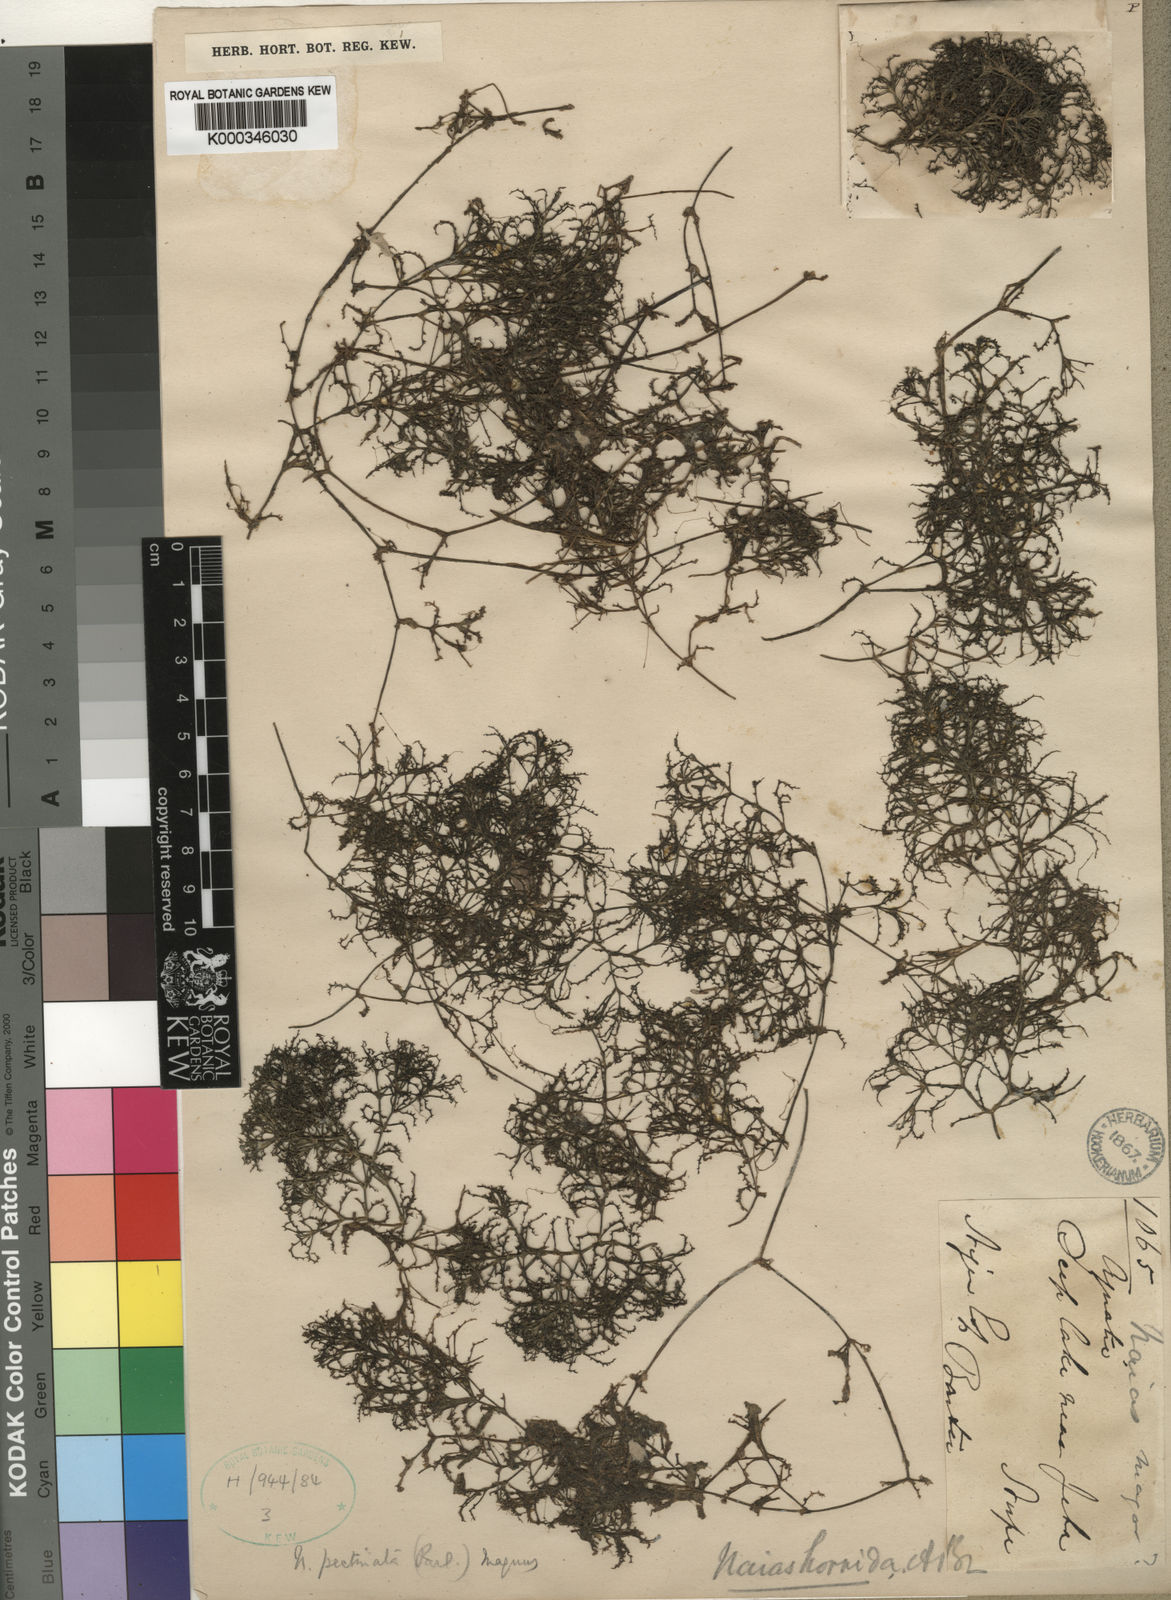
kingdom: Plantae
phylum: Tracheophyta
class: Liliopsida
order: Alismatales
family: Hydrocharitaceae
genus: Najas
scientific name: Najas
